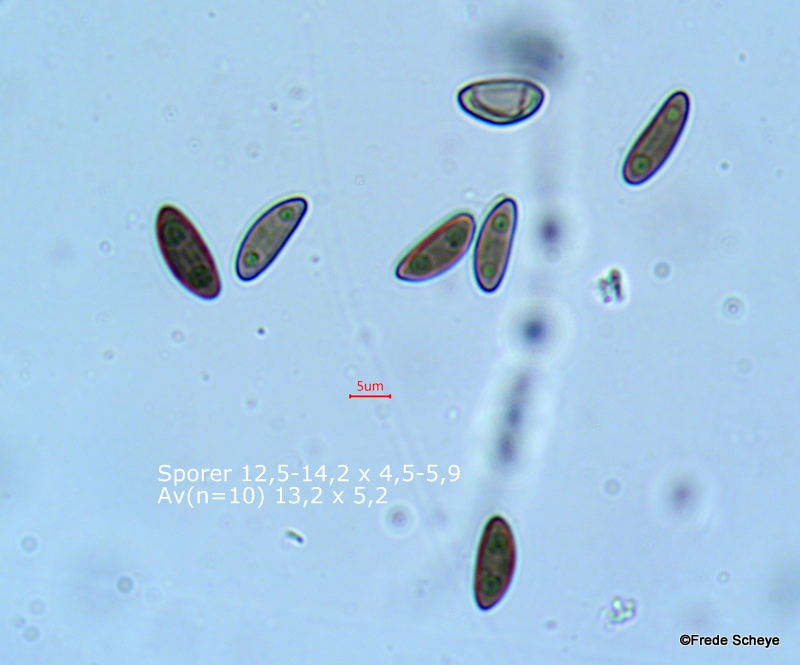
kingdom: Fungi
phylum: Ascomycota
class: Sordariomycetes
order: Xylariales
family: Xylariaceae
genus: Xylaria
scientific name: Xylaria hypoxylon
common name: grenet stødsvamp
